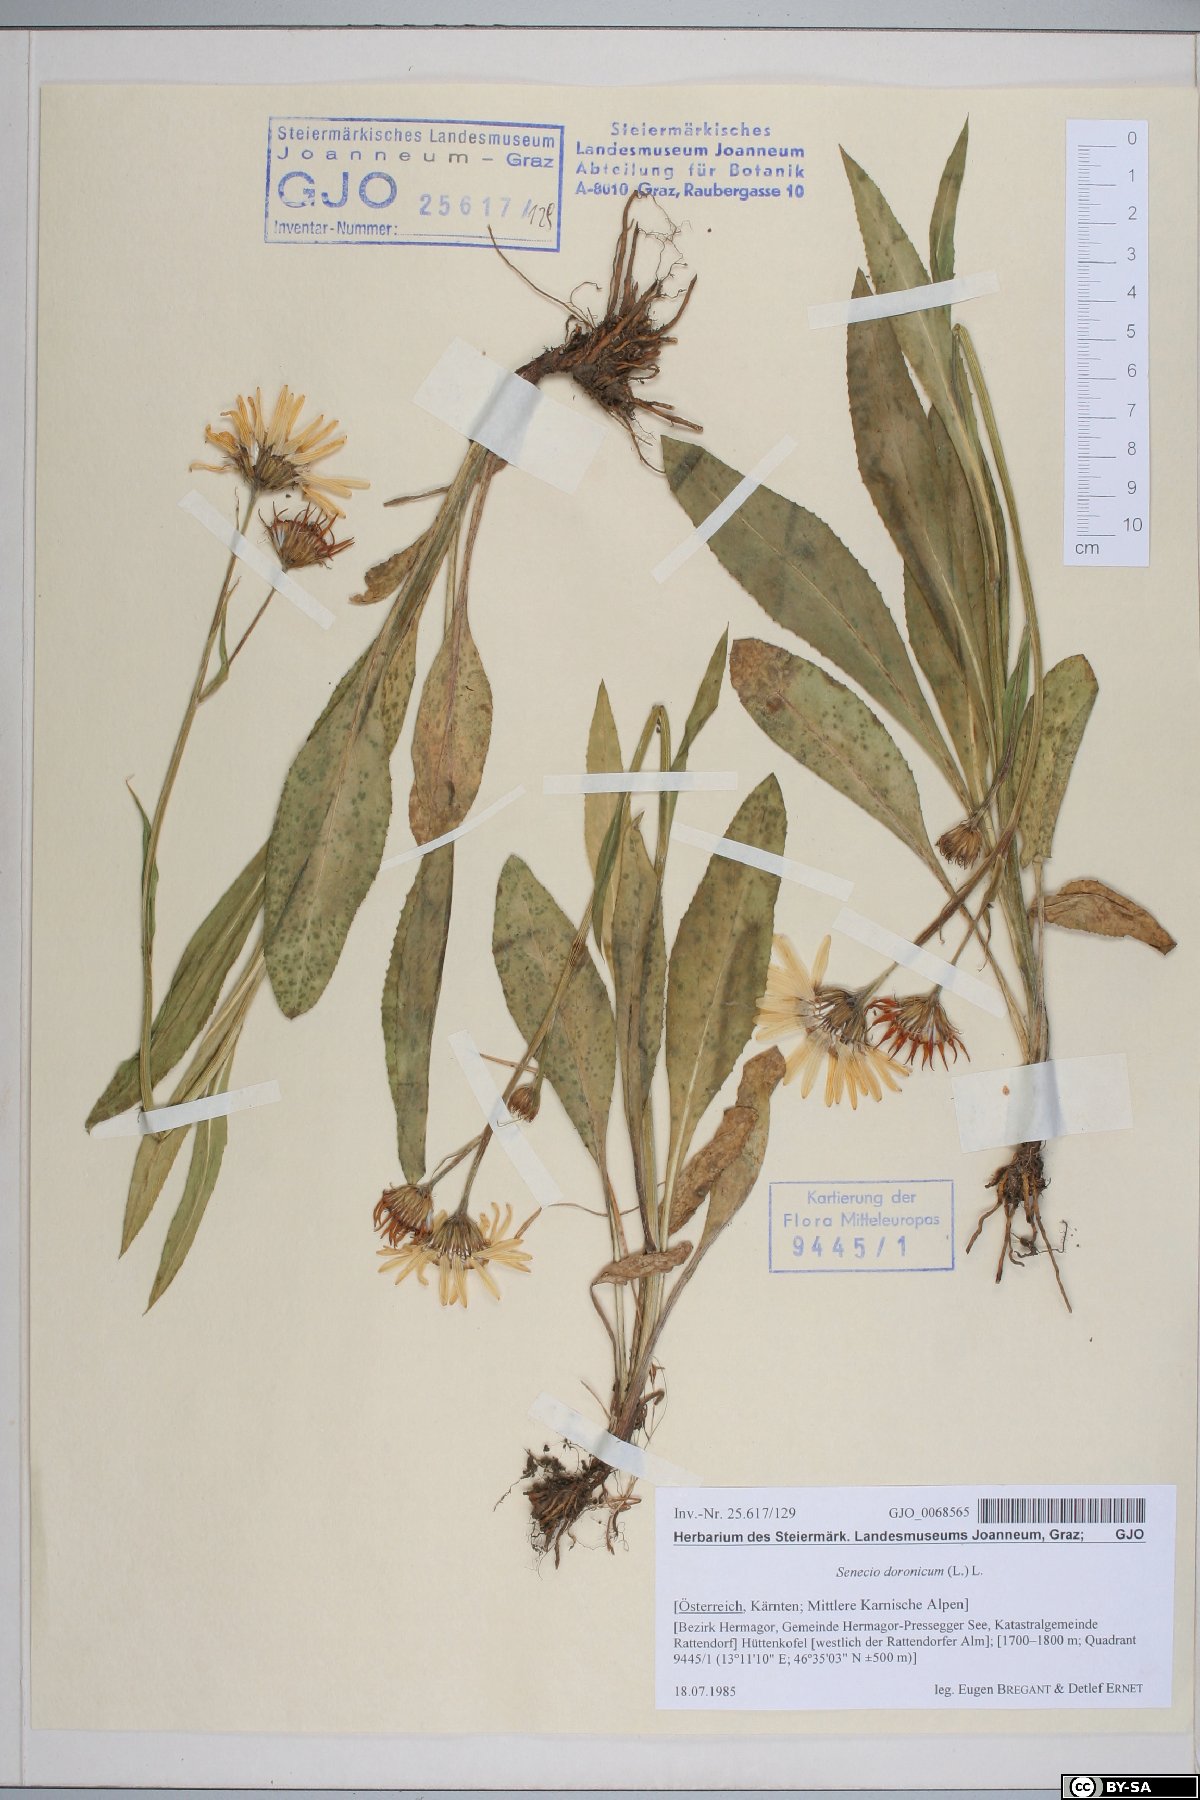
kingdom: Plantae
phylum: Tracheophyta
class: Magnoliopsida
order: Asterales
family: Asteraceae
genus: Senecio
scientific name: Senecio doronicum
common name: Chamois ragwort
